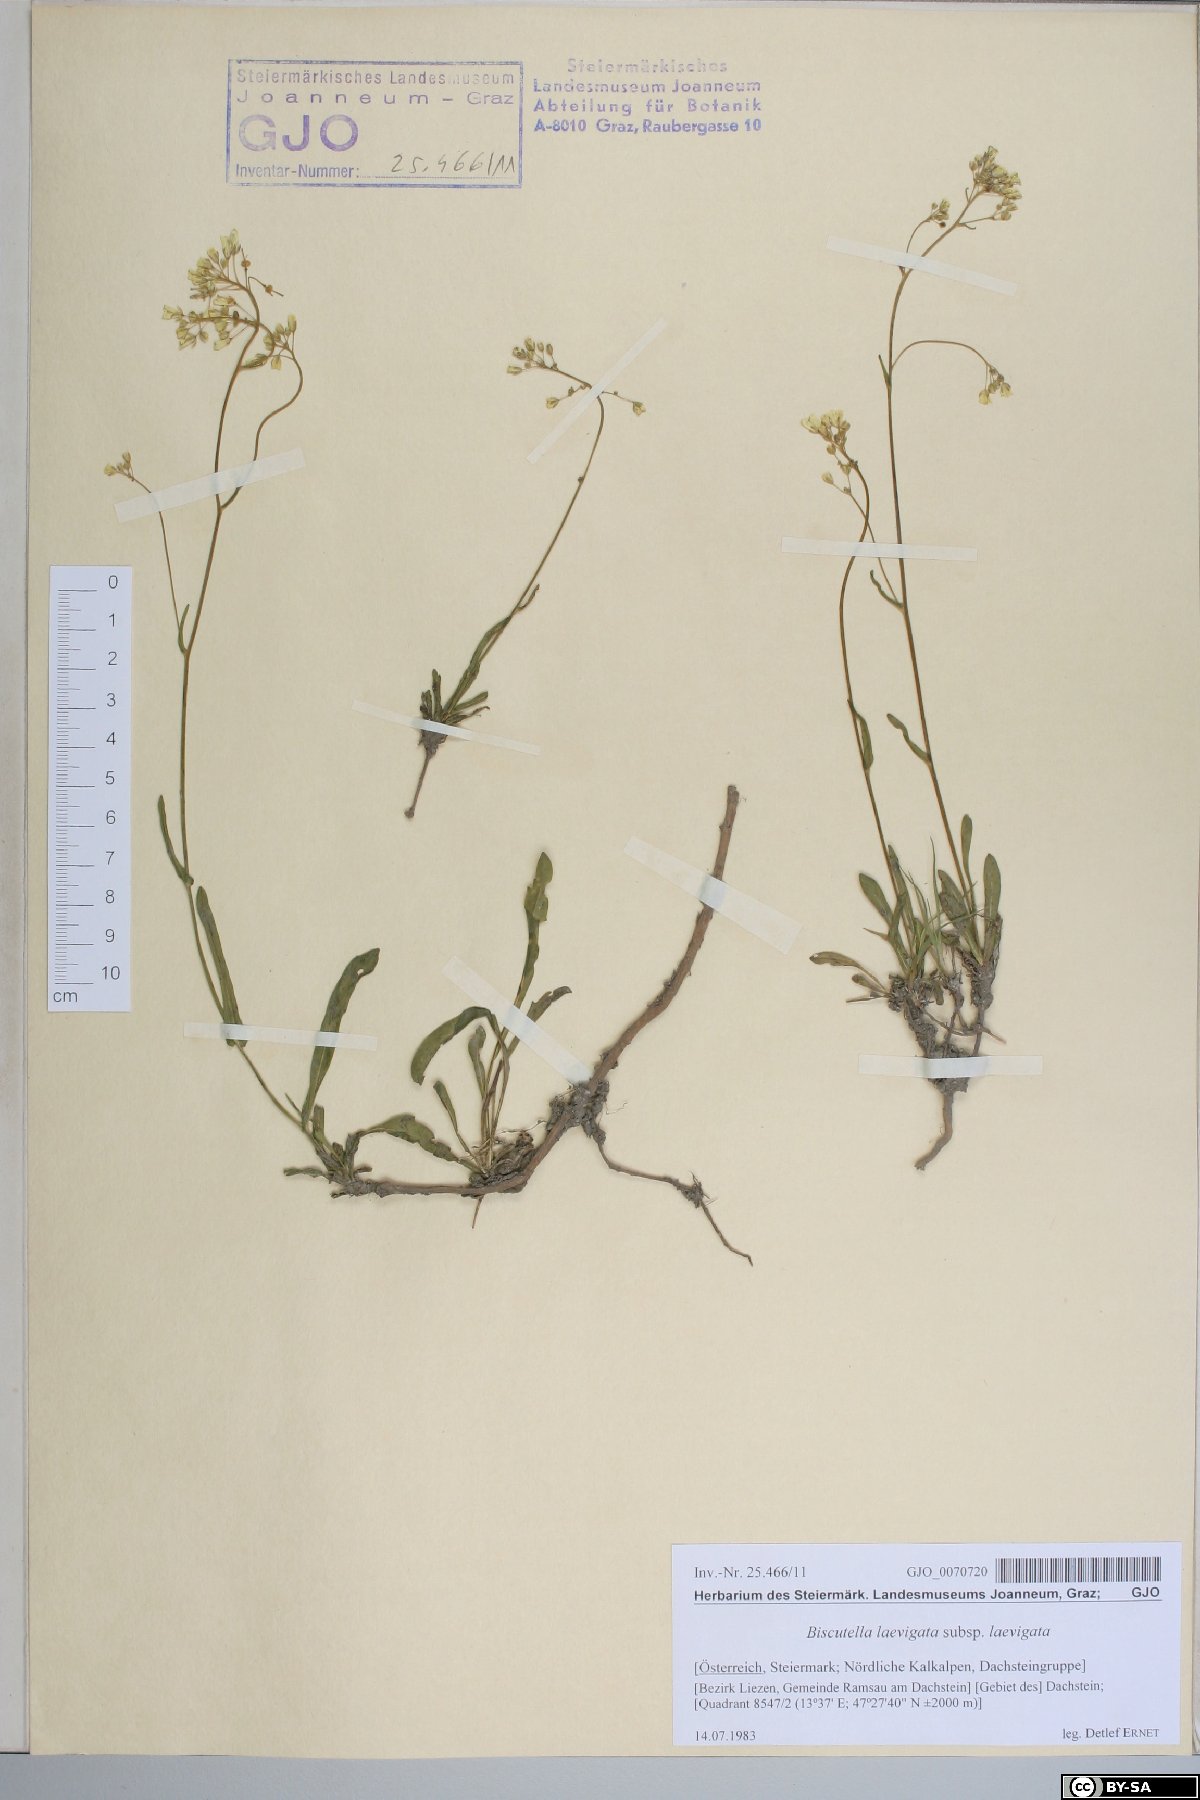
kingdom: Plantae
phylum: Tracheophyta
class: Magnoliopsida
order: Brassicales
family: Brassicaceae
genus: Biscutella
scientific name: Biscutella laevigata
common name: Buckler mustard
